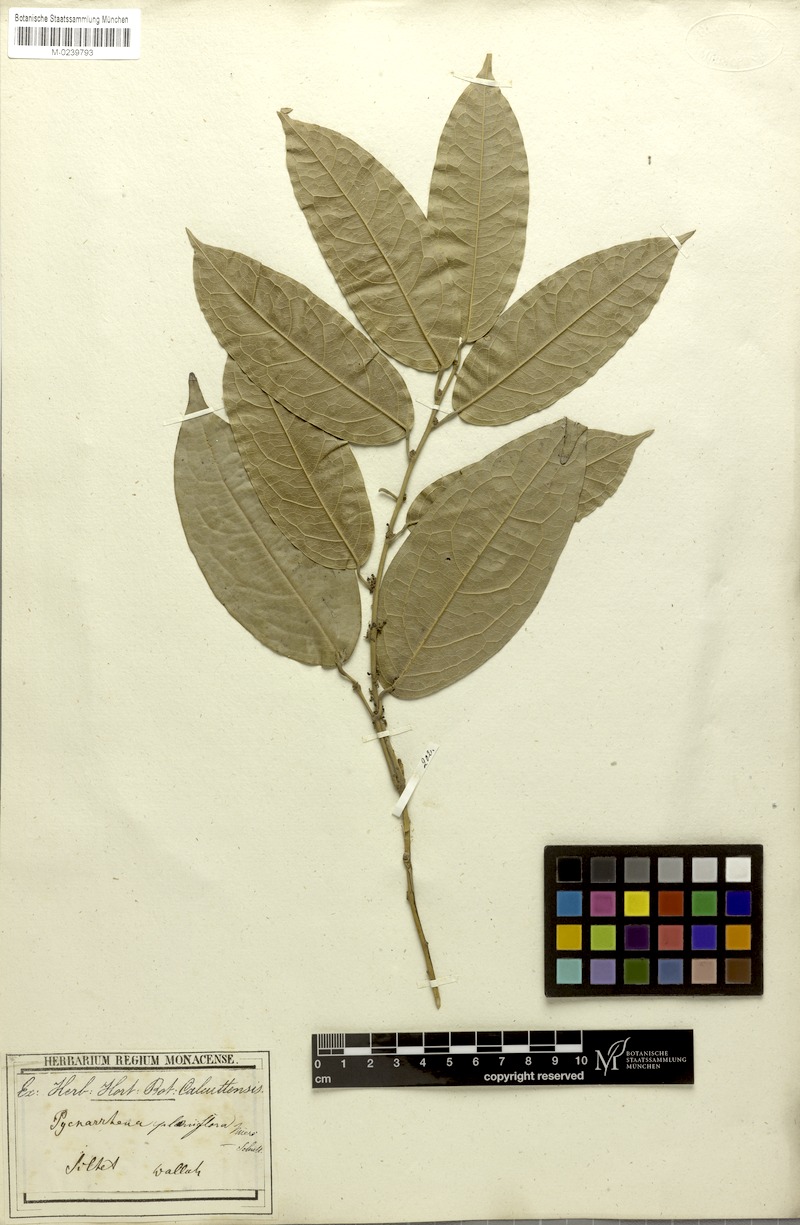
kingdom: Plantae
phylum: Tracheophyta
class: Magnoliopsida
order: Ranunculales
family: Menispermaceae
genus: Pycnarrhena
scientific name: Pycnarrhena planiflora
